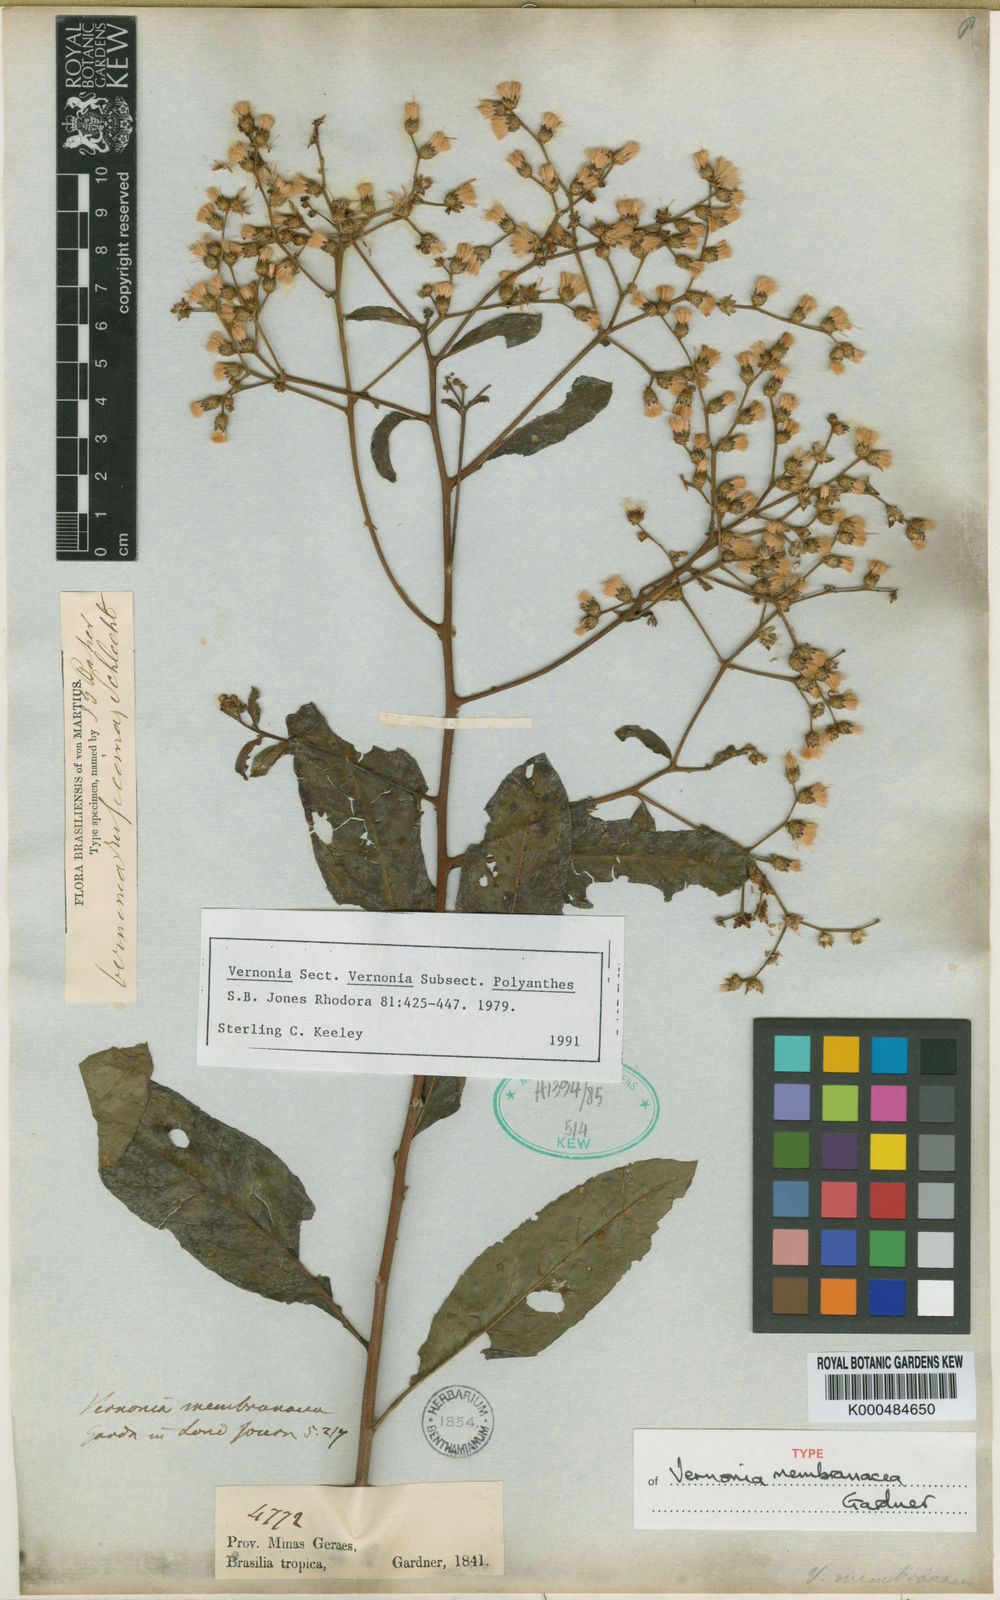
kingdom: Plantae
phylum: Tracheophyta
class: Magnoliopsida
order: Asterales
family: Asteraceae
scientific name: Asteraceae
